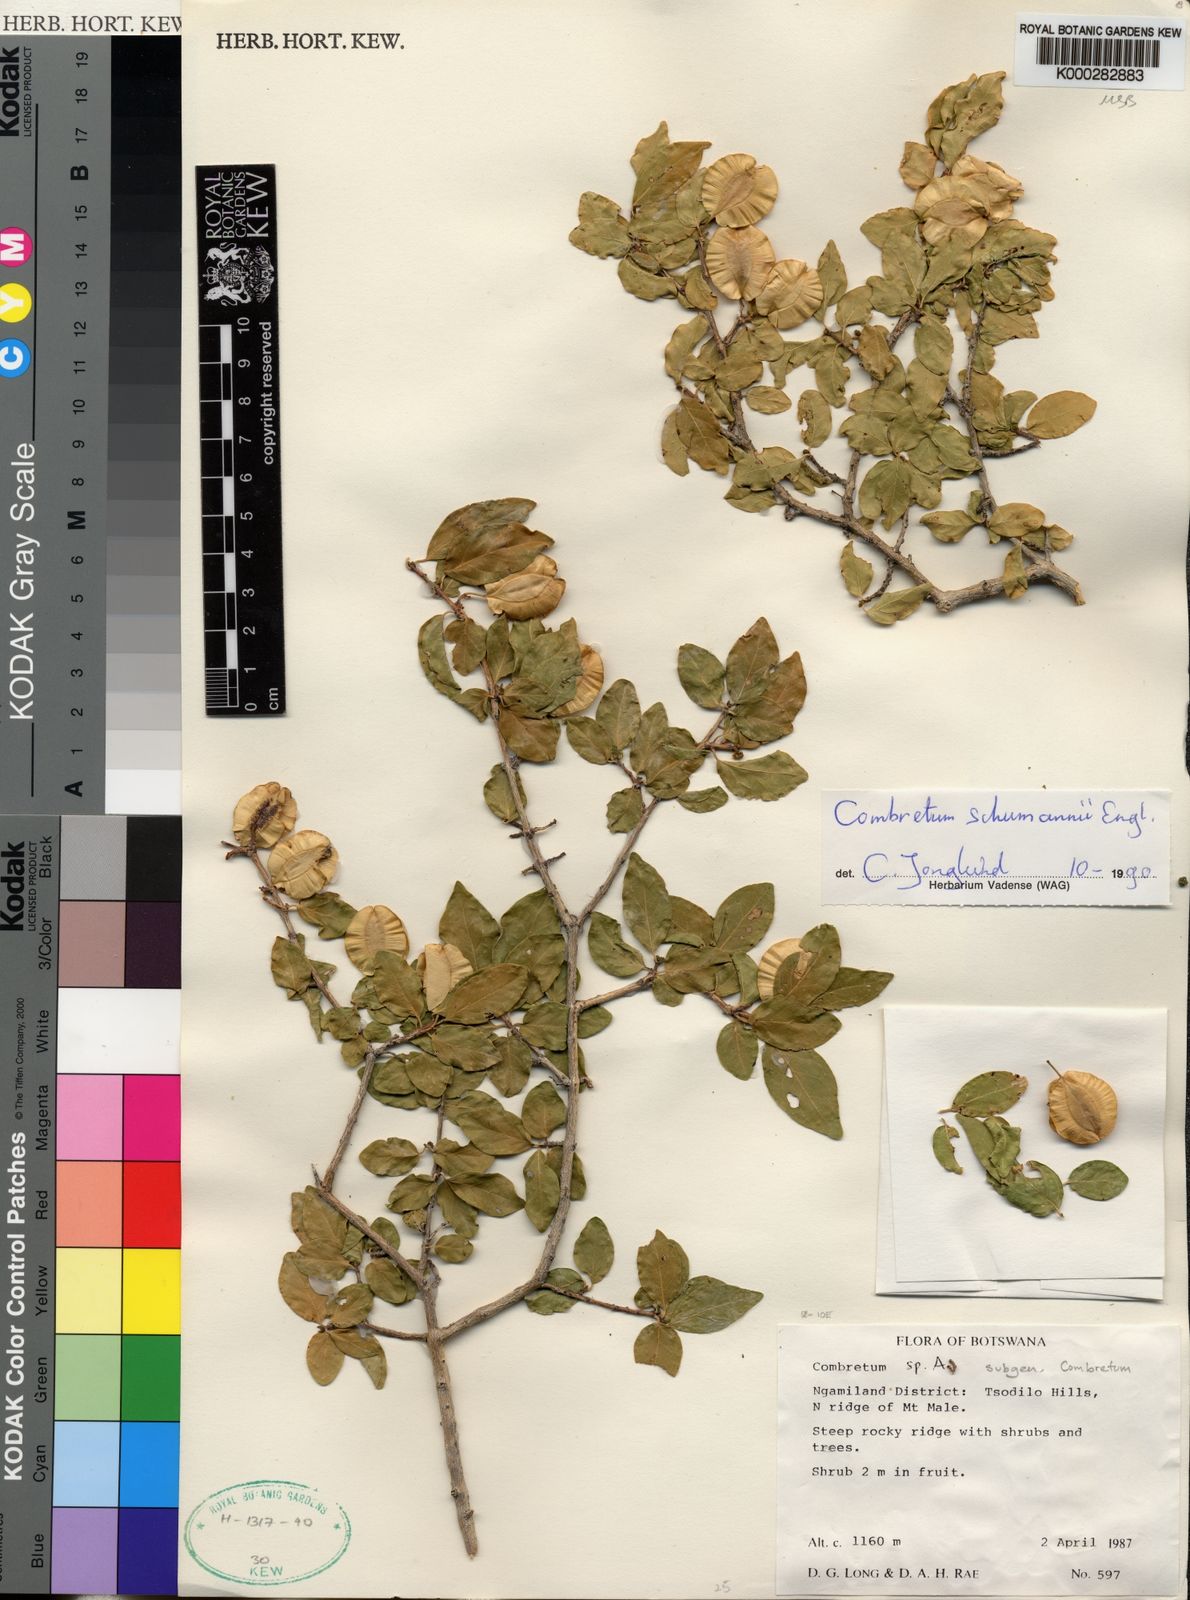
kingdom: Plantae
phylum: Tracheophyta
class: Magnoliopsida
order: Myrtales
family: Combretaceae
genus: Combretum
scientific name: Combretum schumannii
